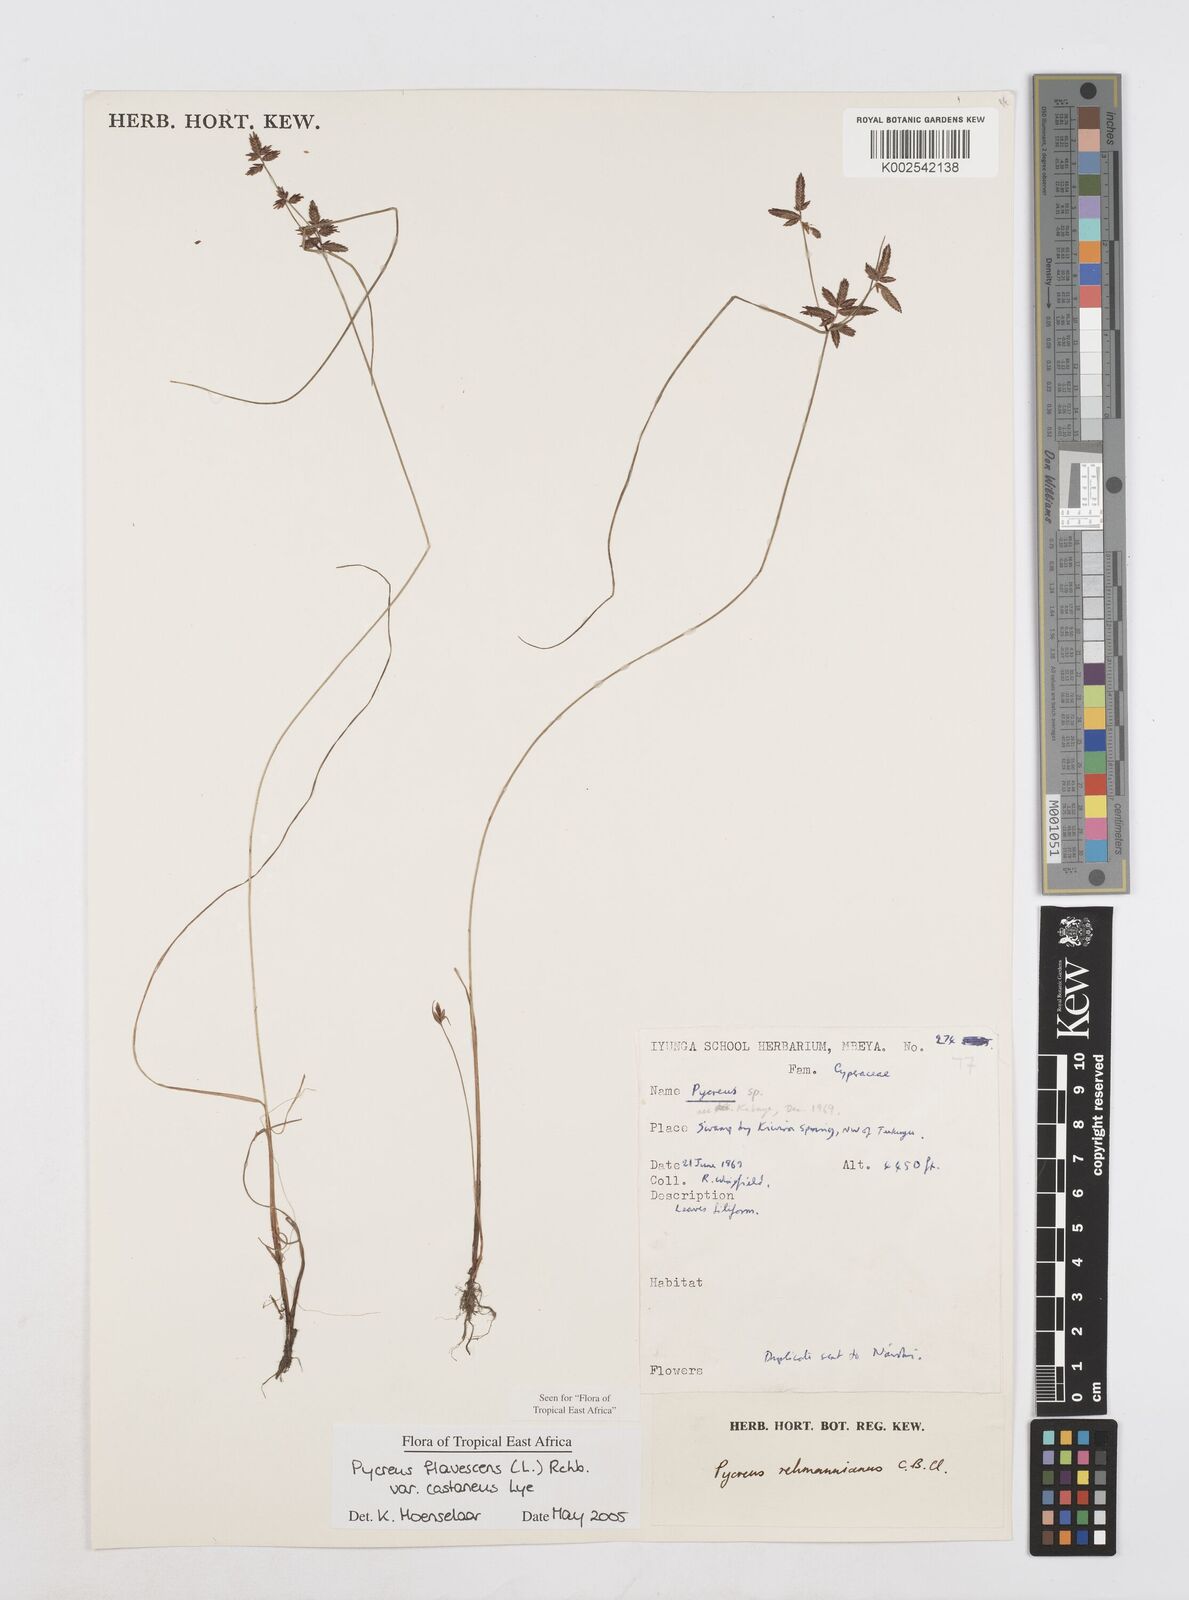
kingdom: Plantae
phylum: Tracheophyta
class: Liliopsida
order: Poales
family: Cyperaceae
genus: Cyperus
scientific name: Cyperus flavescens
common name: Yellow galingale
